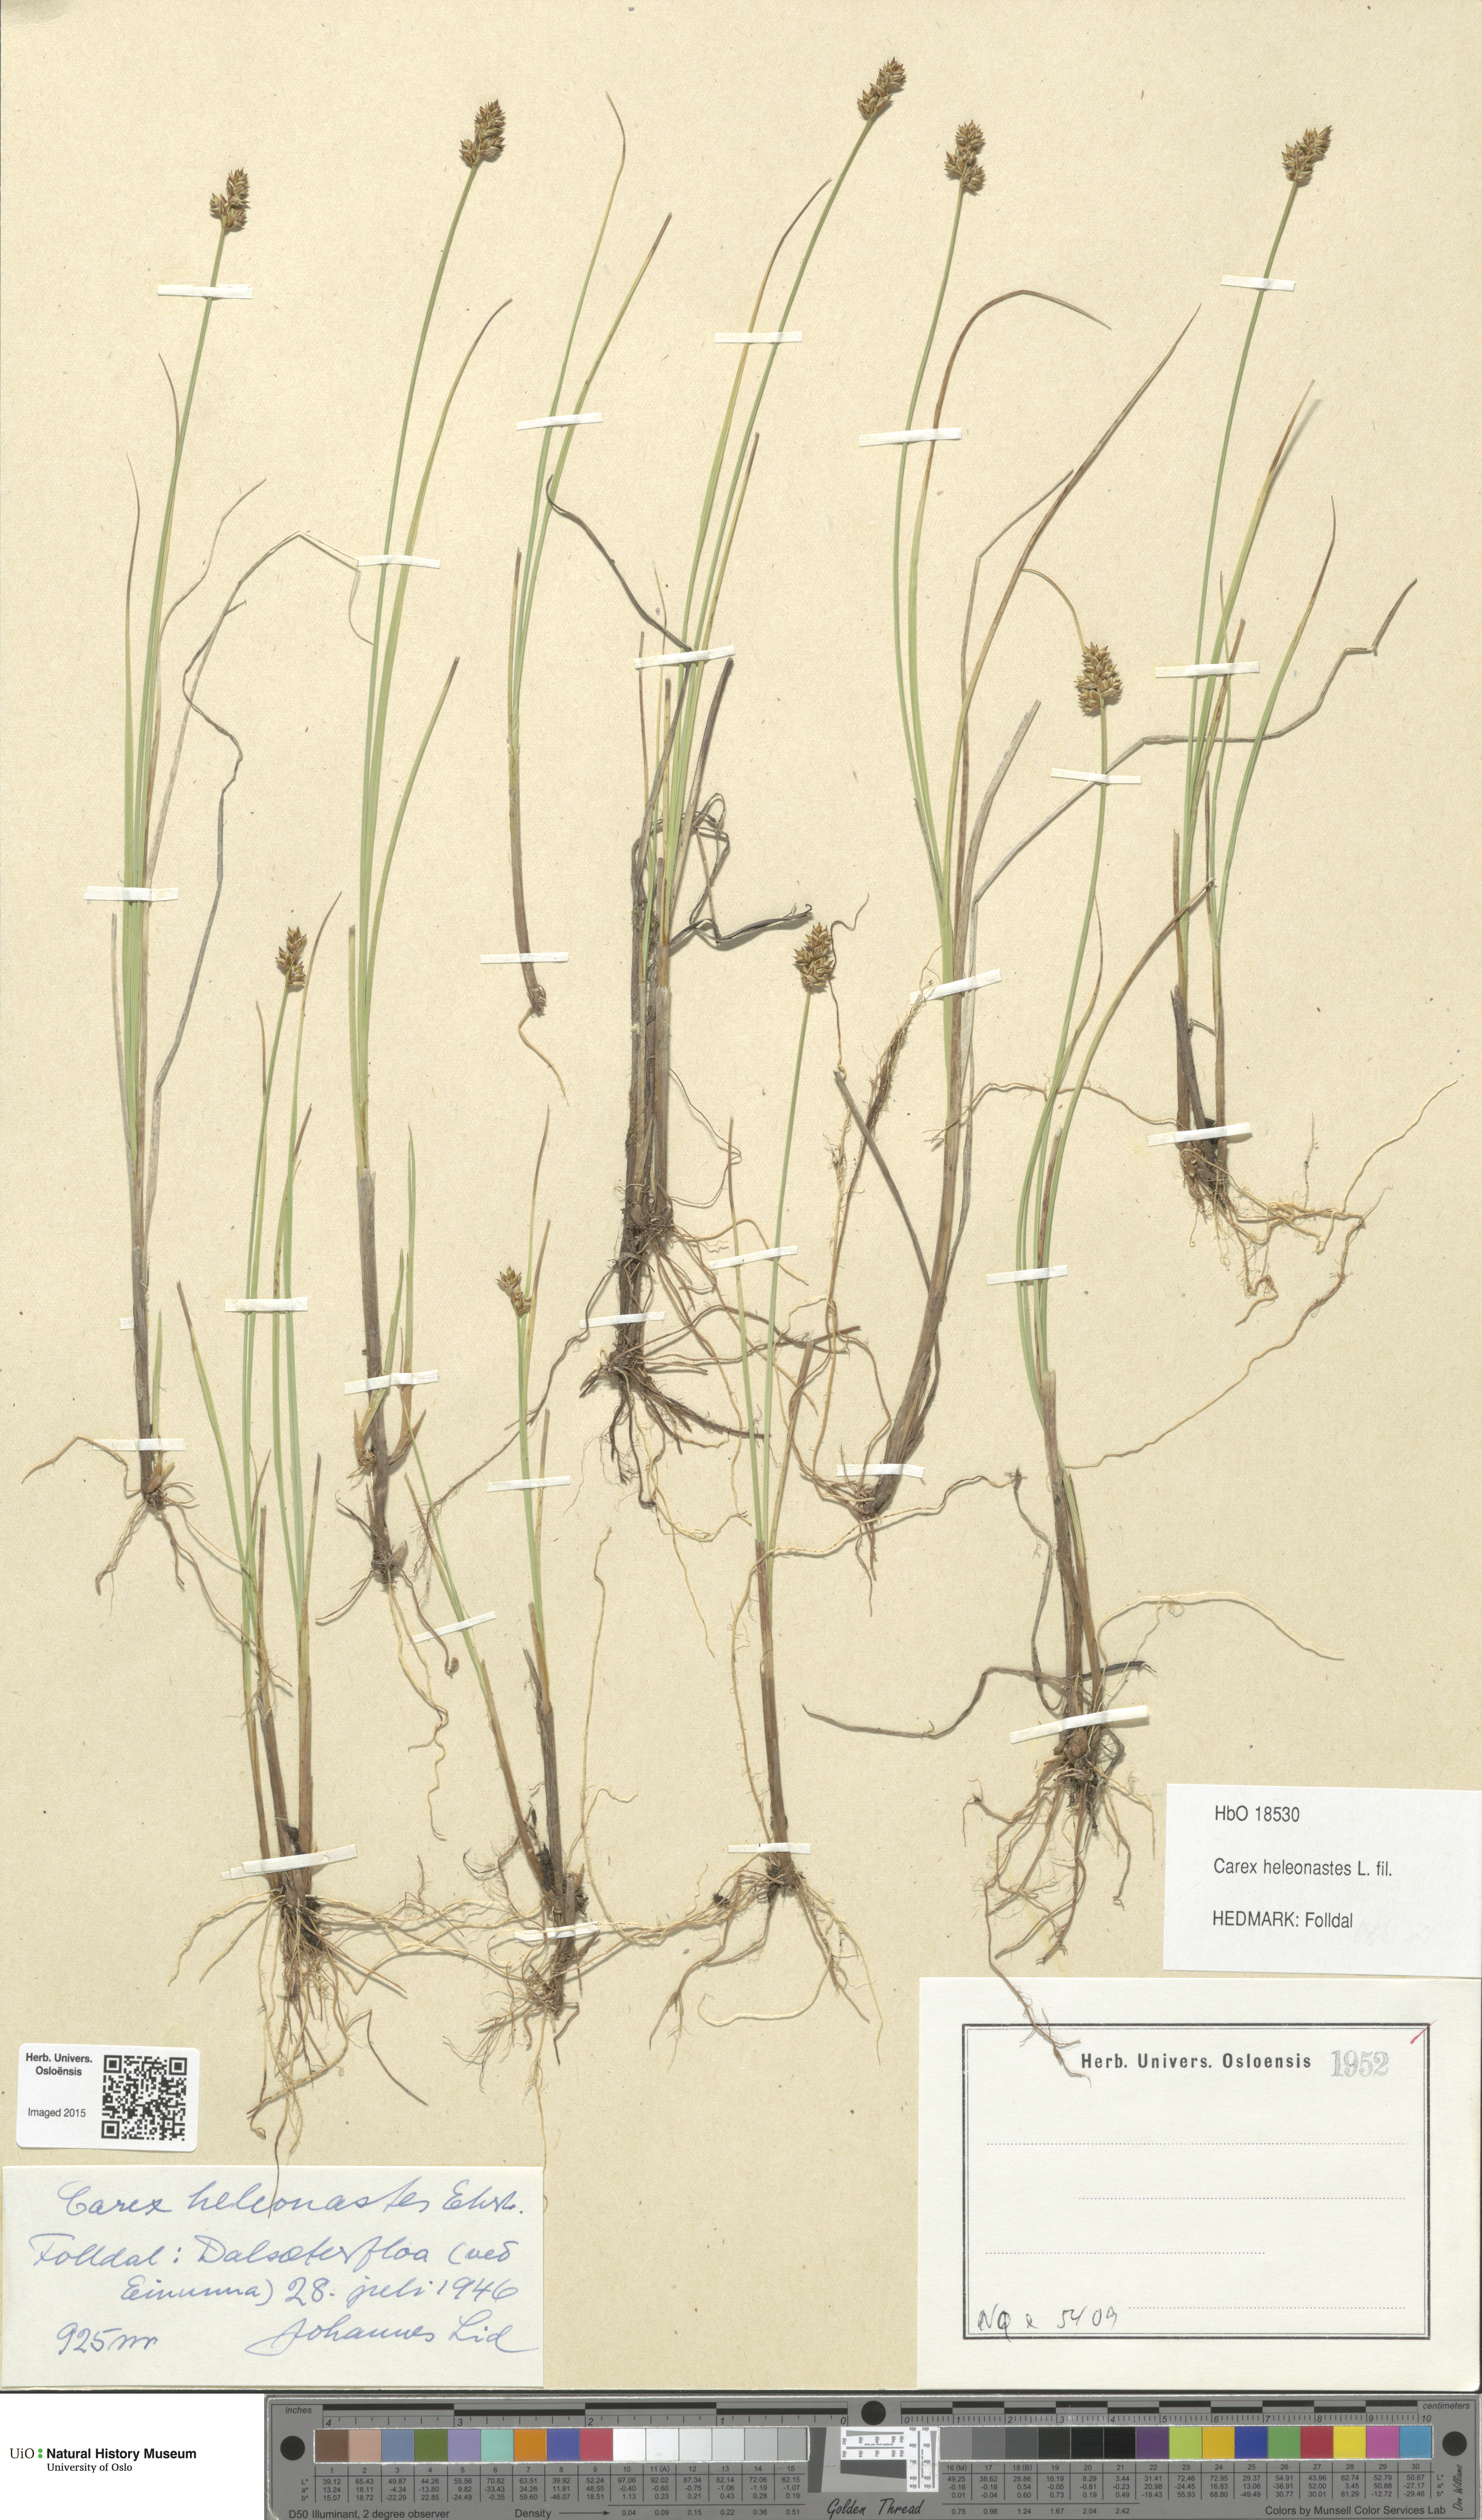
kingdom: Plantae
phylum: Tracheophyta
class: Liliopsida
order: Poales
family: Cyperaceae
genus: Carex
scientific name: Carex heleonastes
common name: Hudson bay sedge
